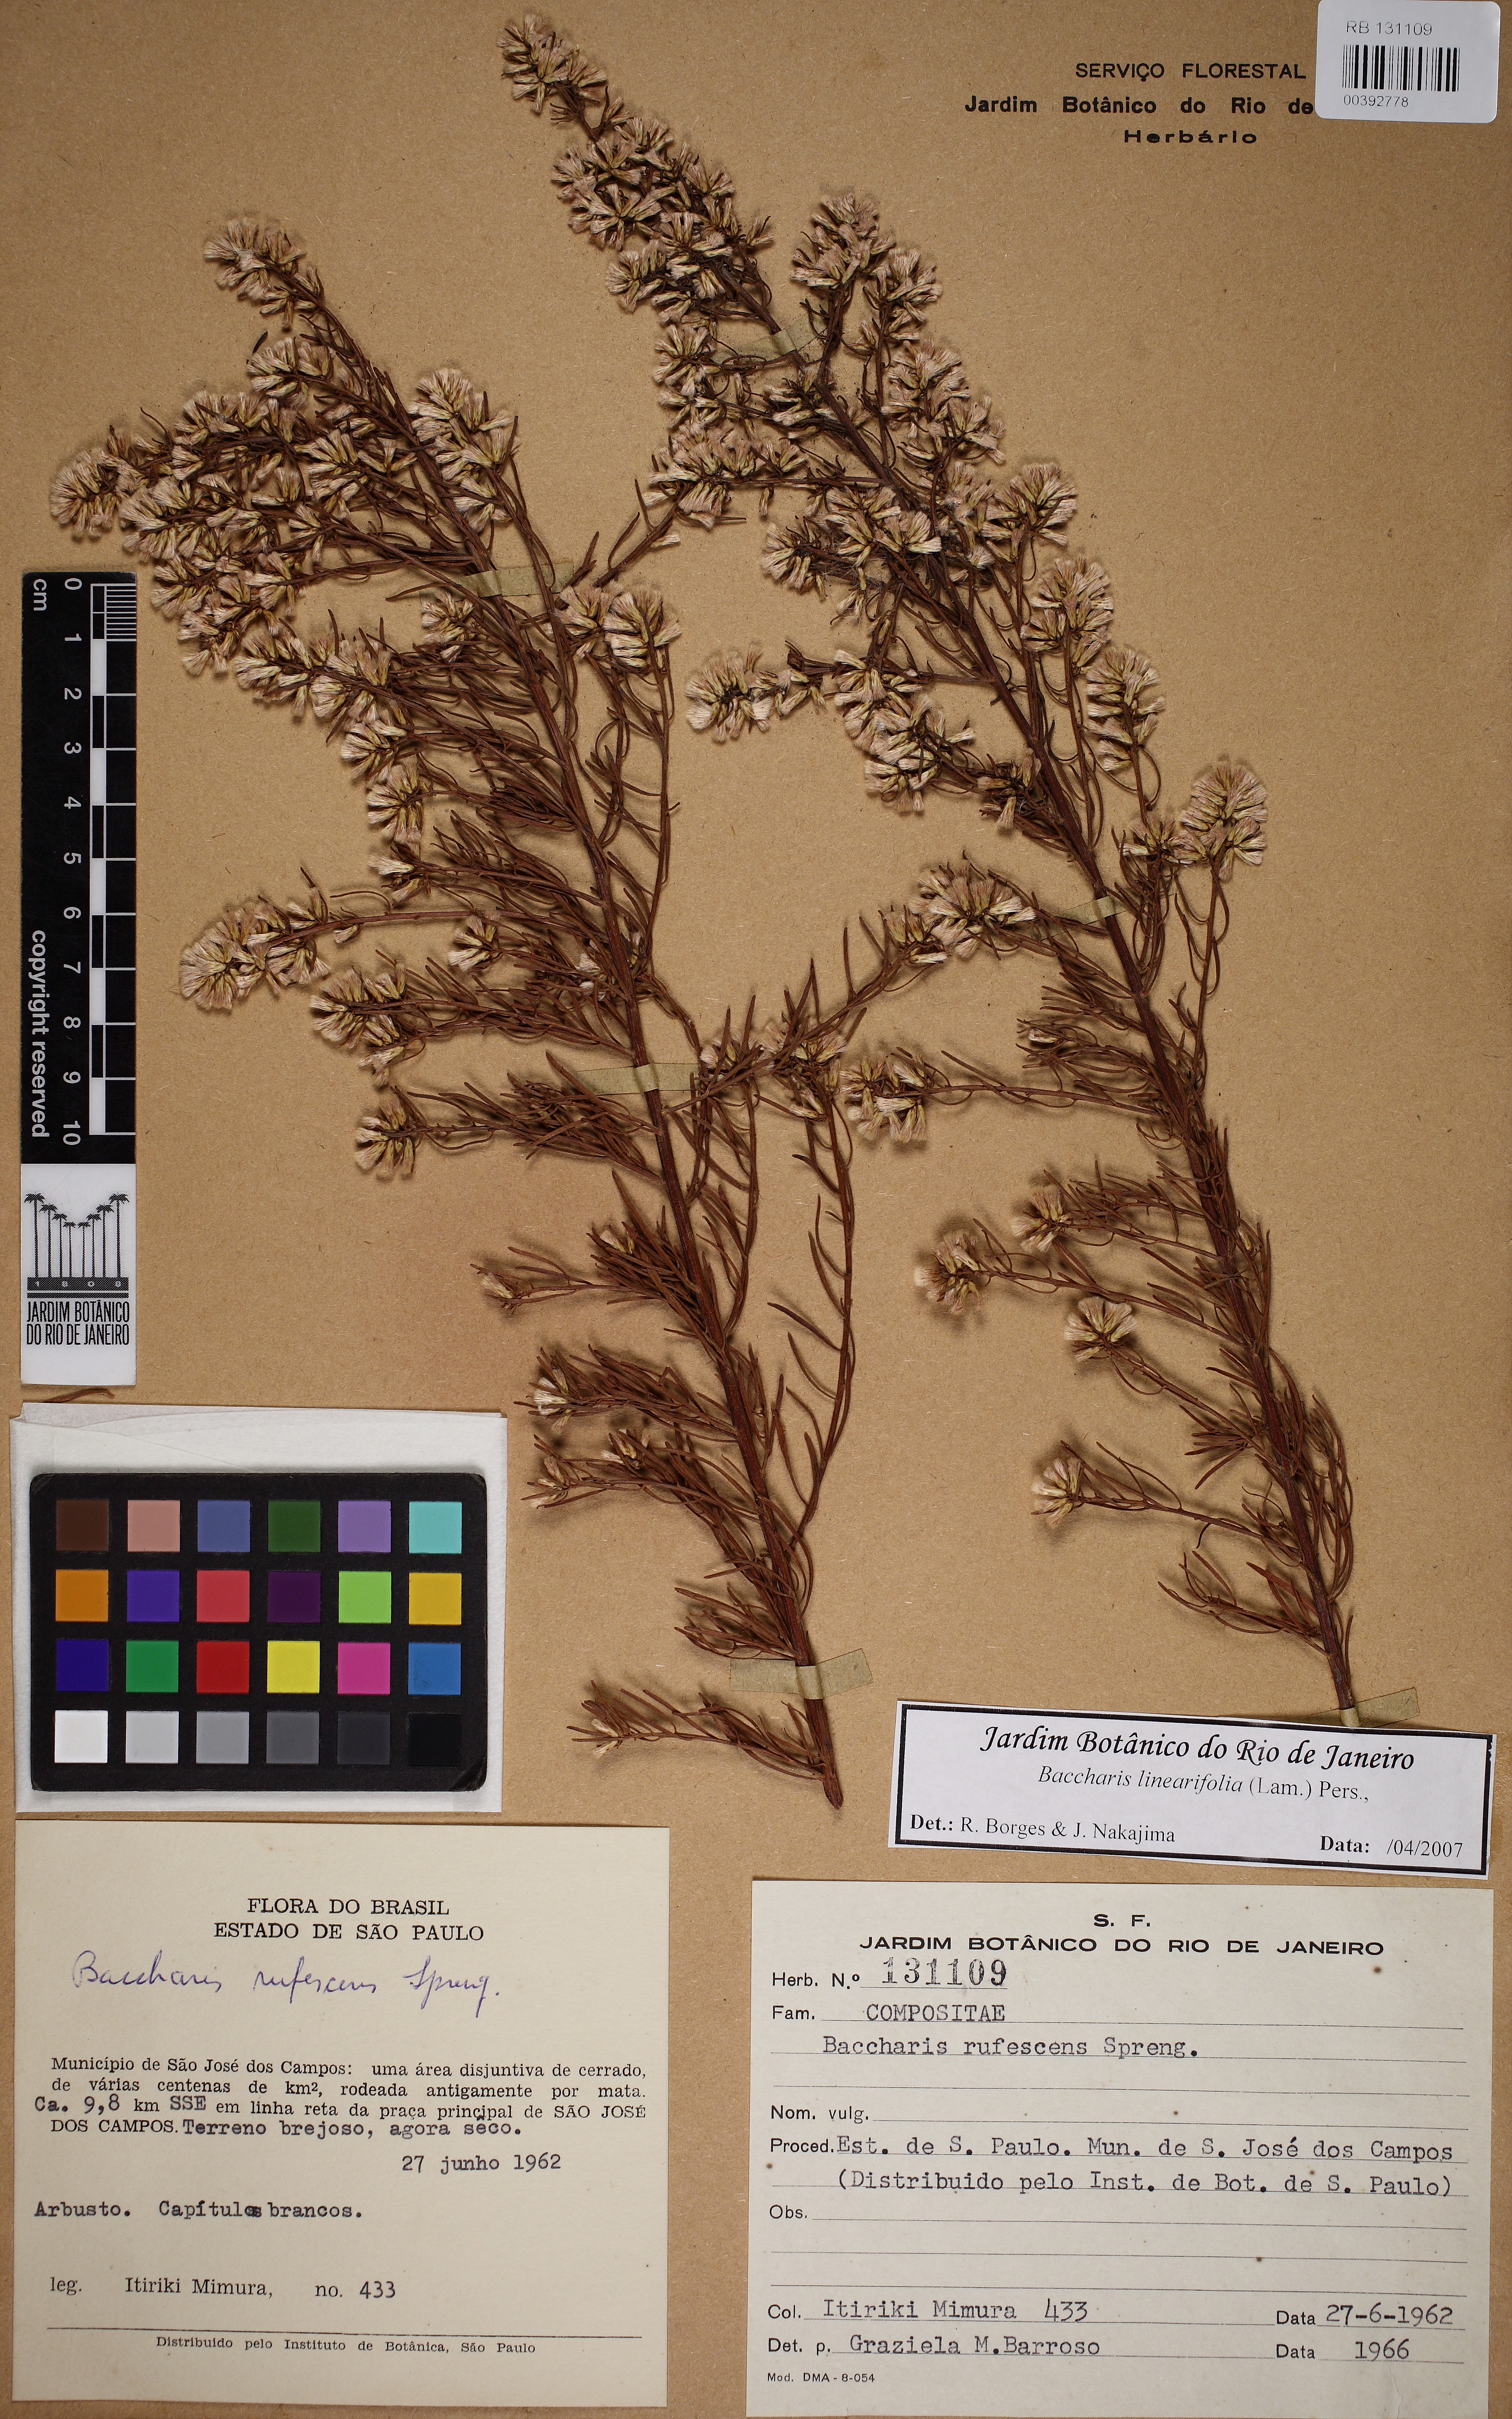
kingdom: Plantae
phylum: Tracheophyta
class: Magnoliopsida
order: Asterales
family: Asteraceae
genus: Baccharis
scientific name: Baccharis linearifolia
